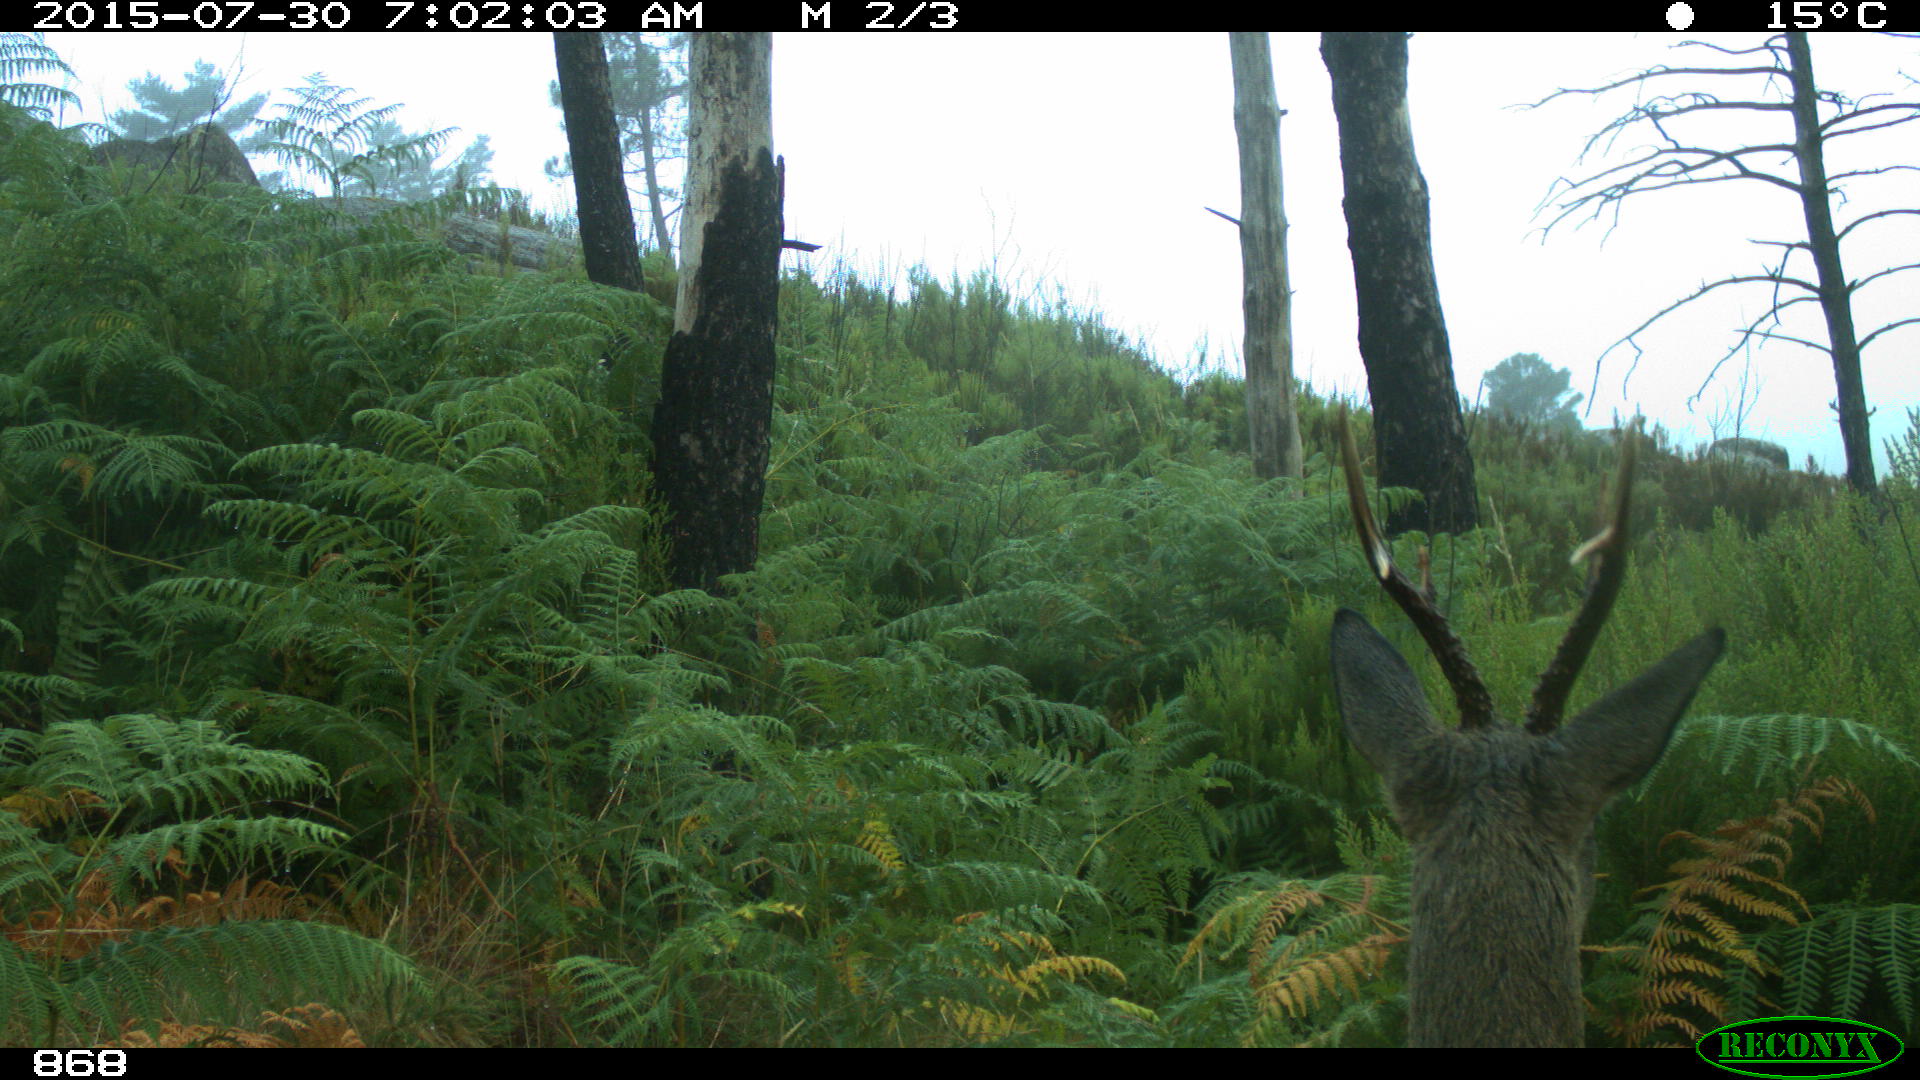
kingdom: Animalia
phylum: Chordata
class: Mammalia
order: Artiodactyla
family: Cervidae
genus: Capreolus
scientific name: Capreolus capreolus
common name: Western roe deer
